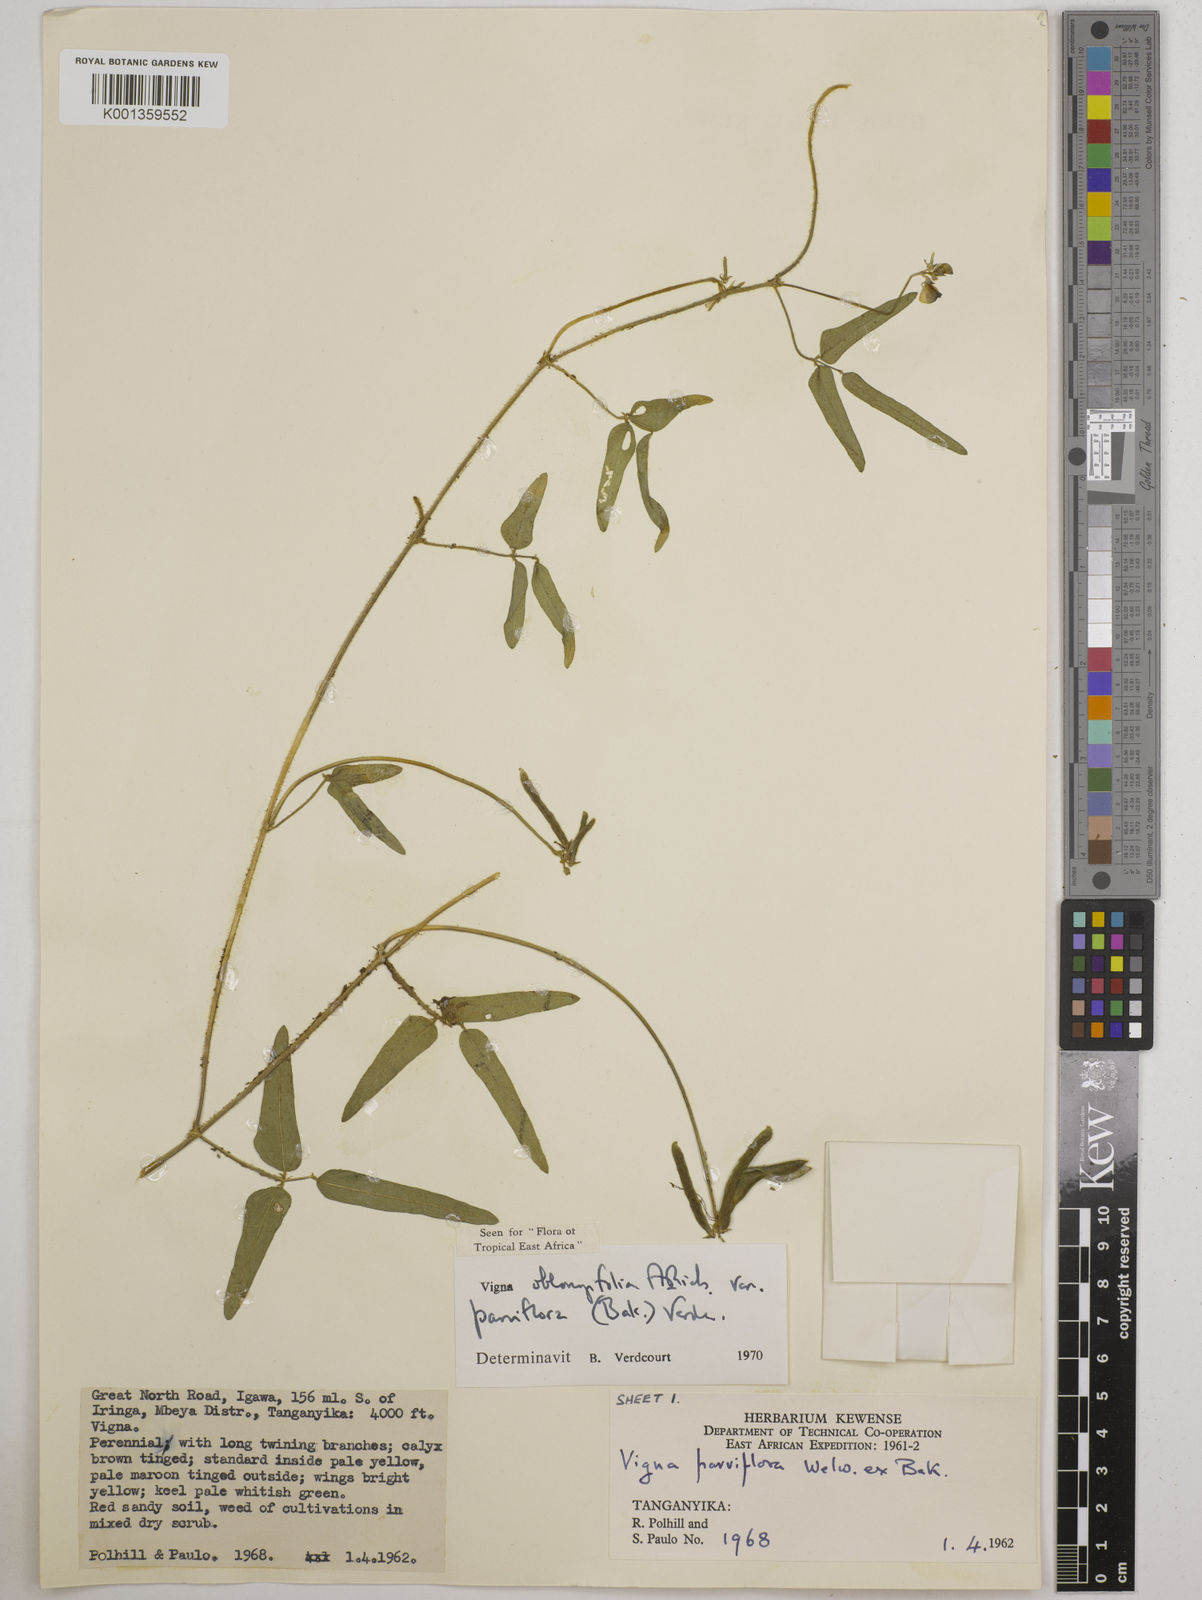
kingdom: Plantae
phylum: Tracheophyta
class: Magnoliopsida
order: Fabales
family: Fabaceae
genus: Vigna
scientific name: Vigna
